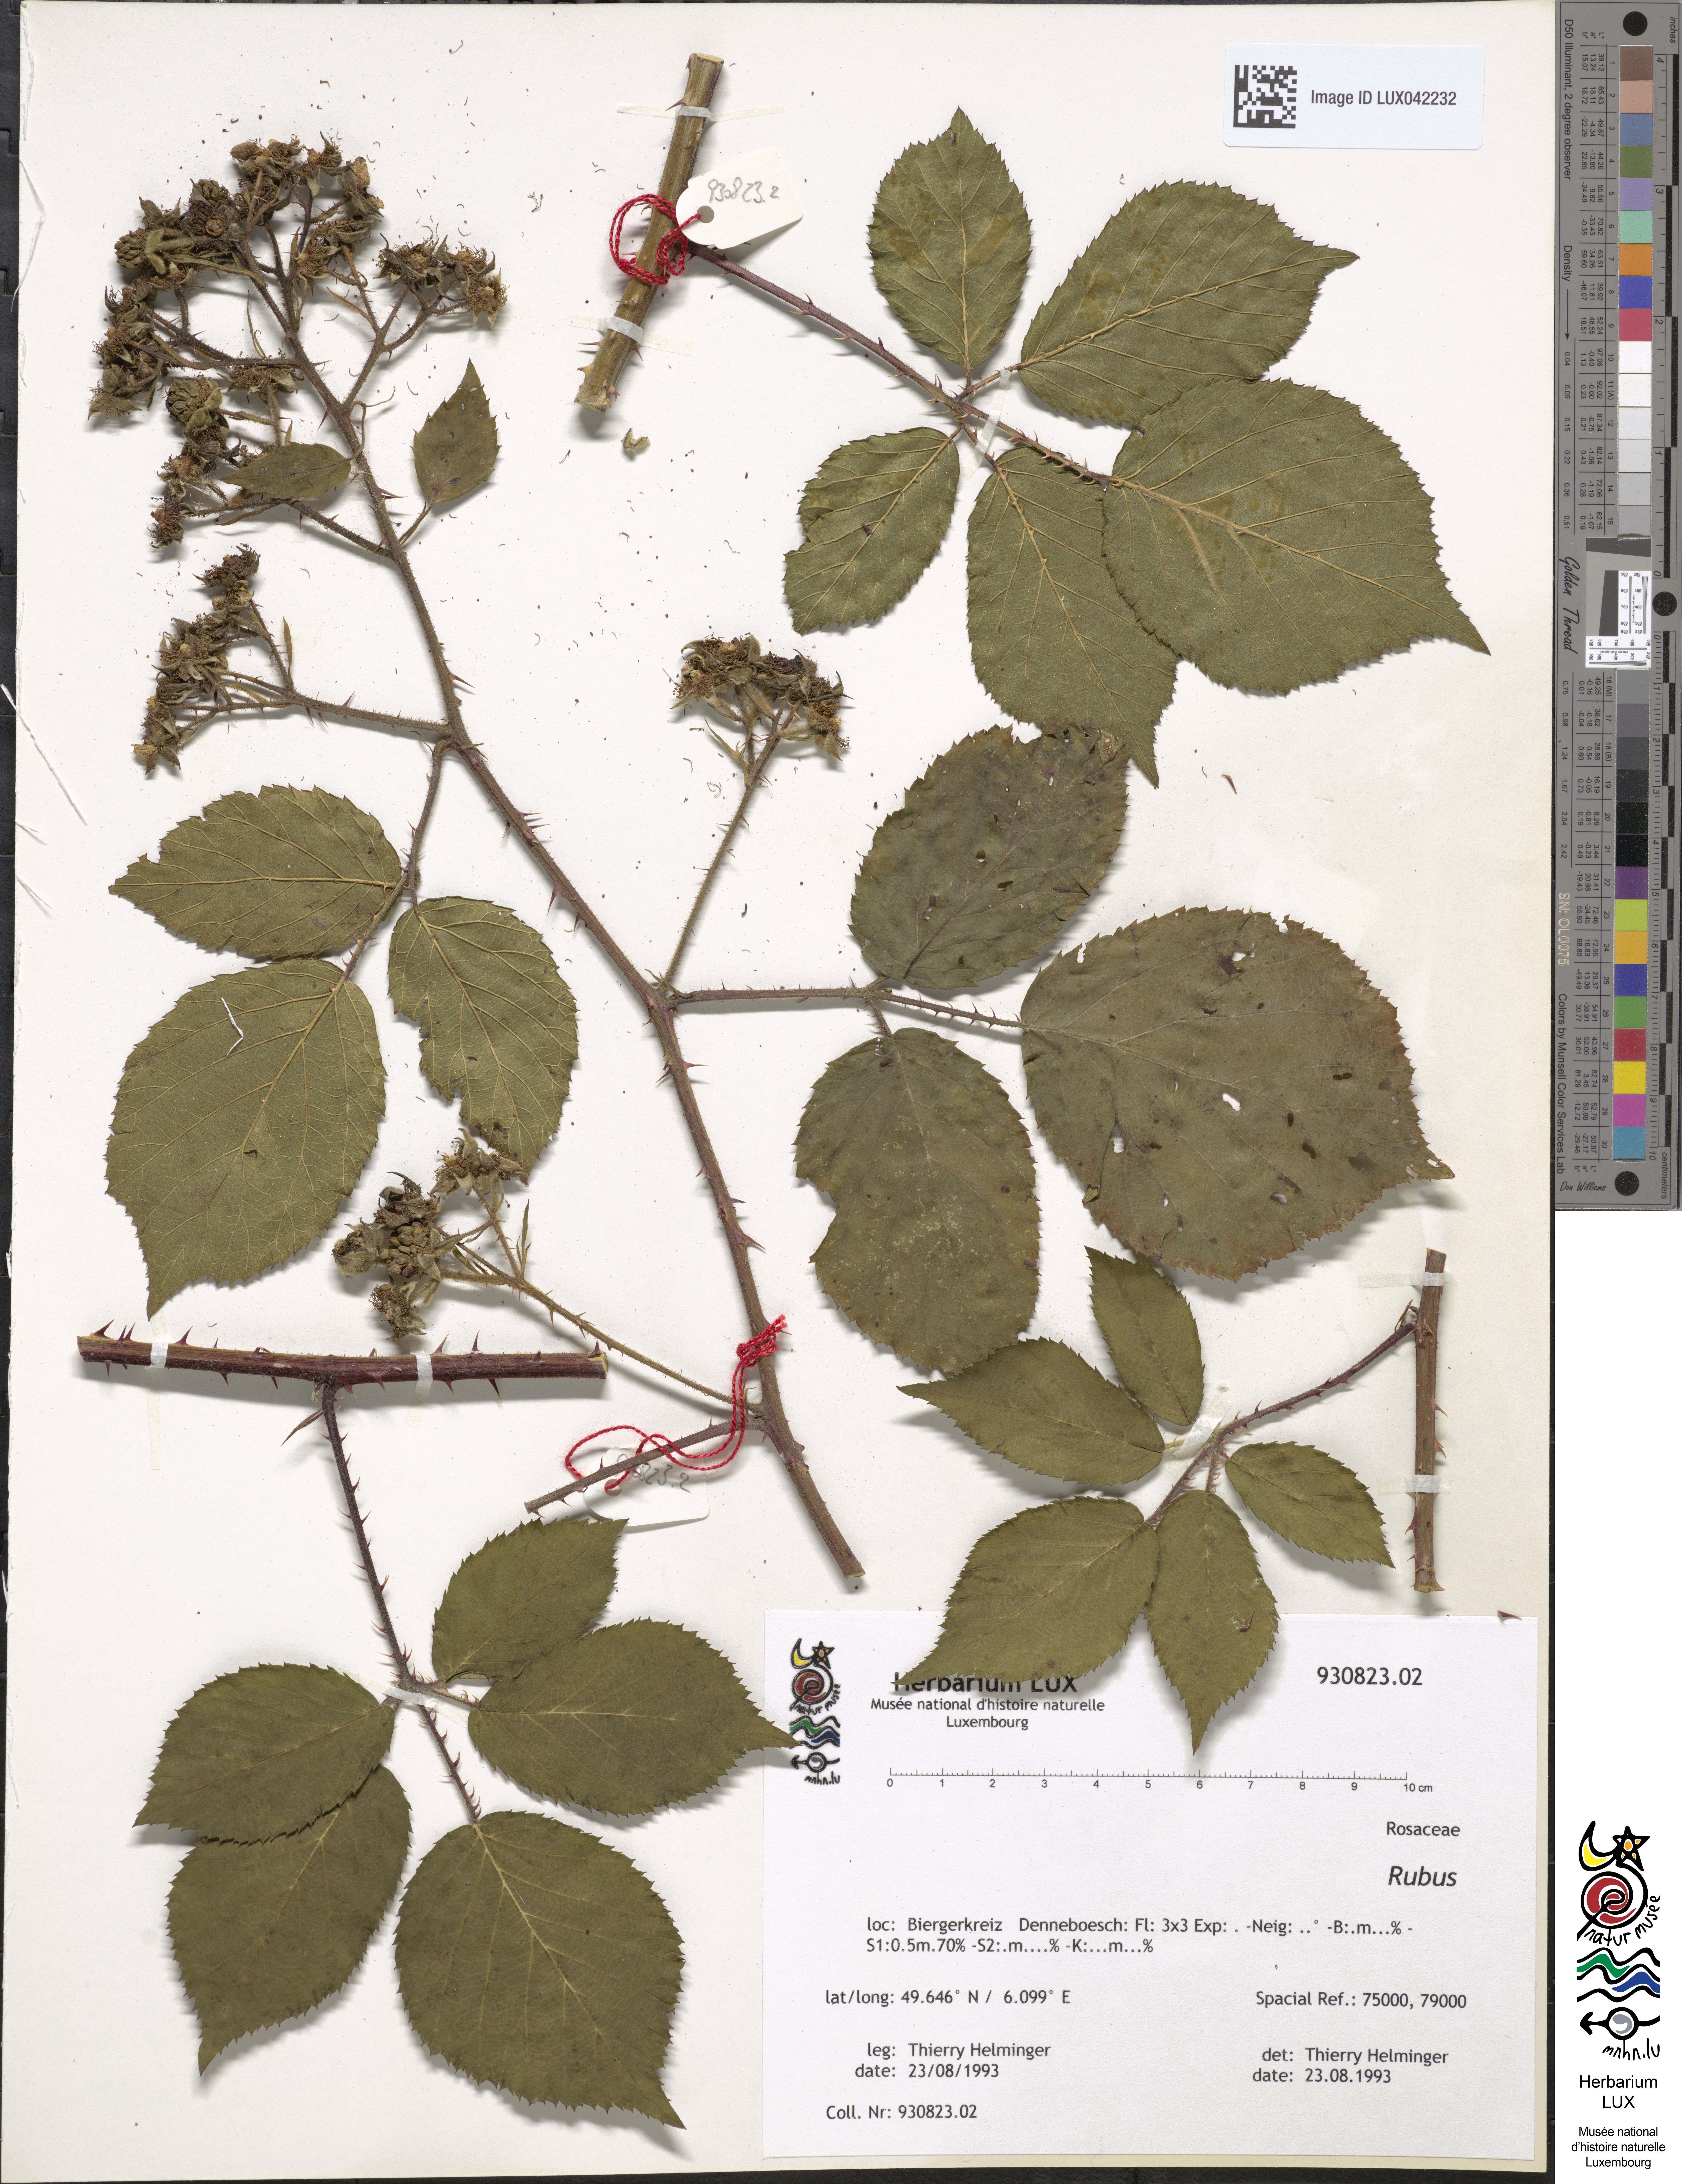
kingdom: Plantae
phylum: Tracheophyta
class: Magnoliopsida
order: Rosales
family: Rosaceae
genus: Rubus
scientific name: Rubus
